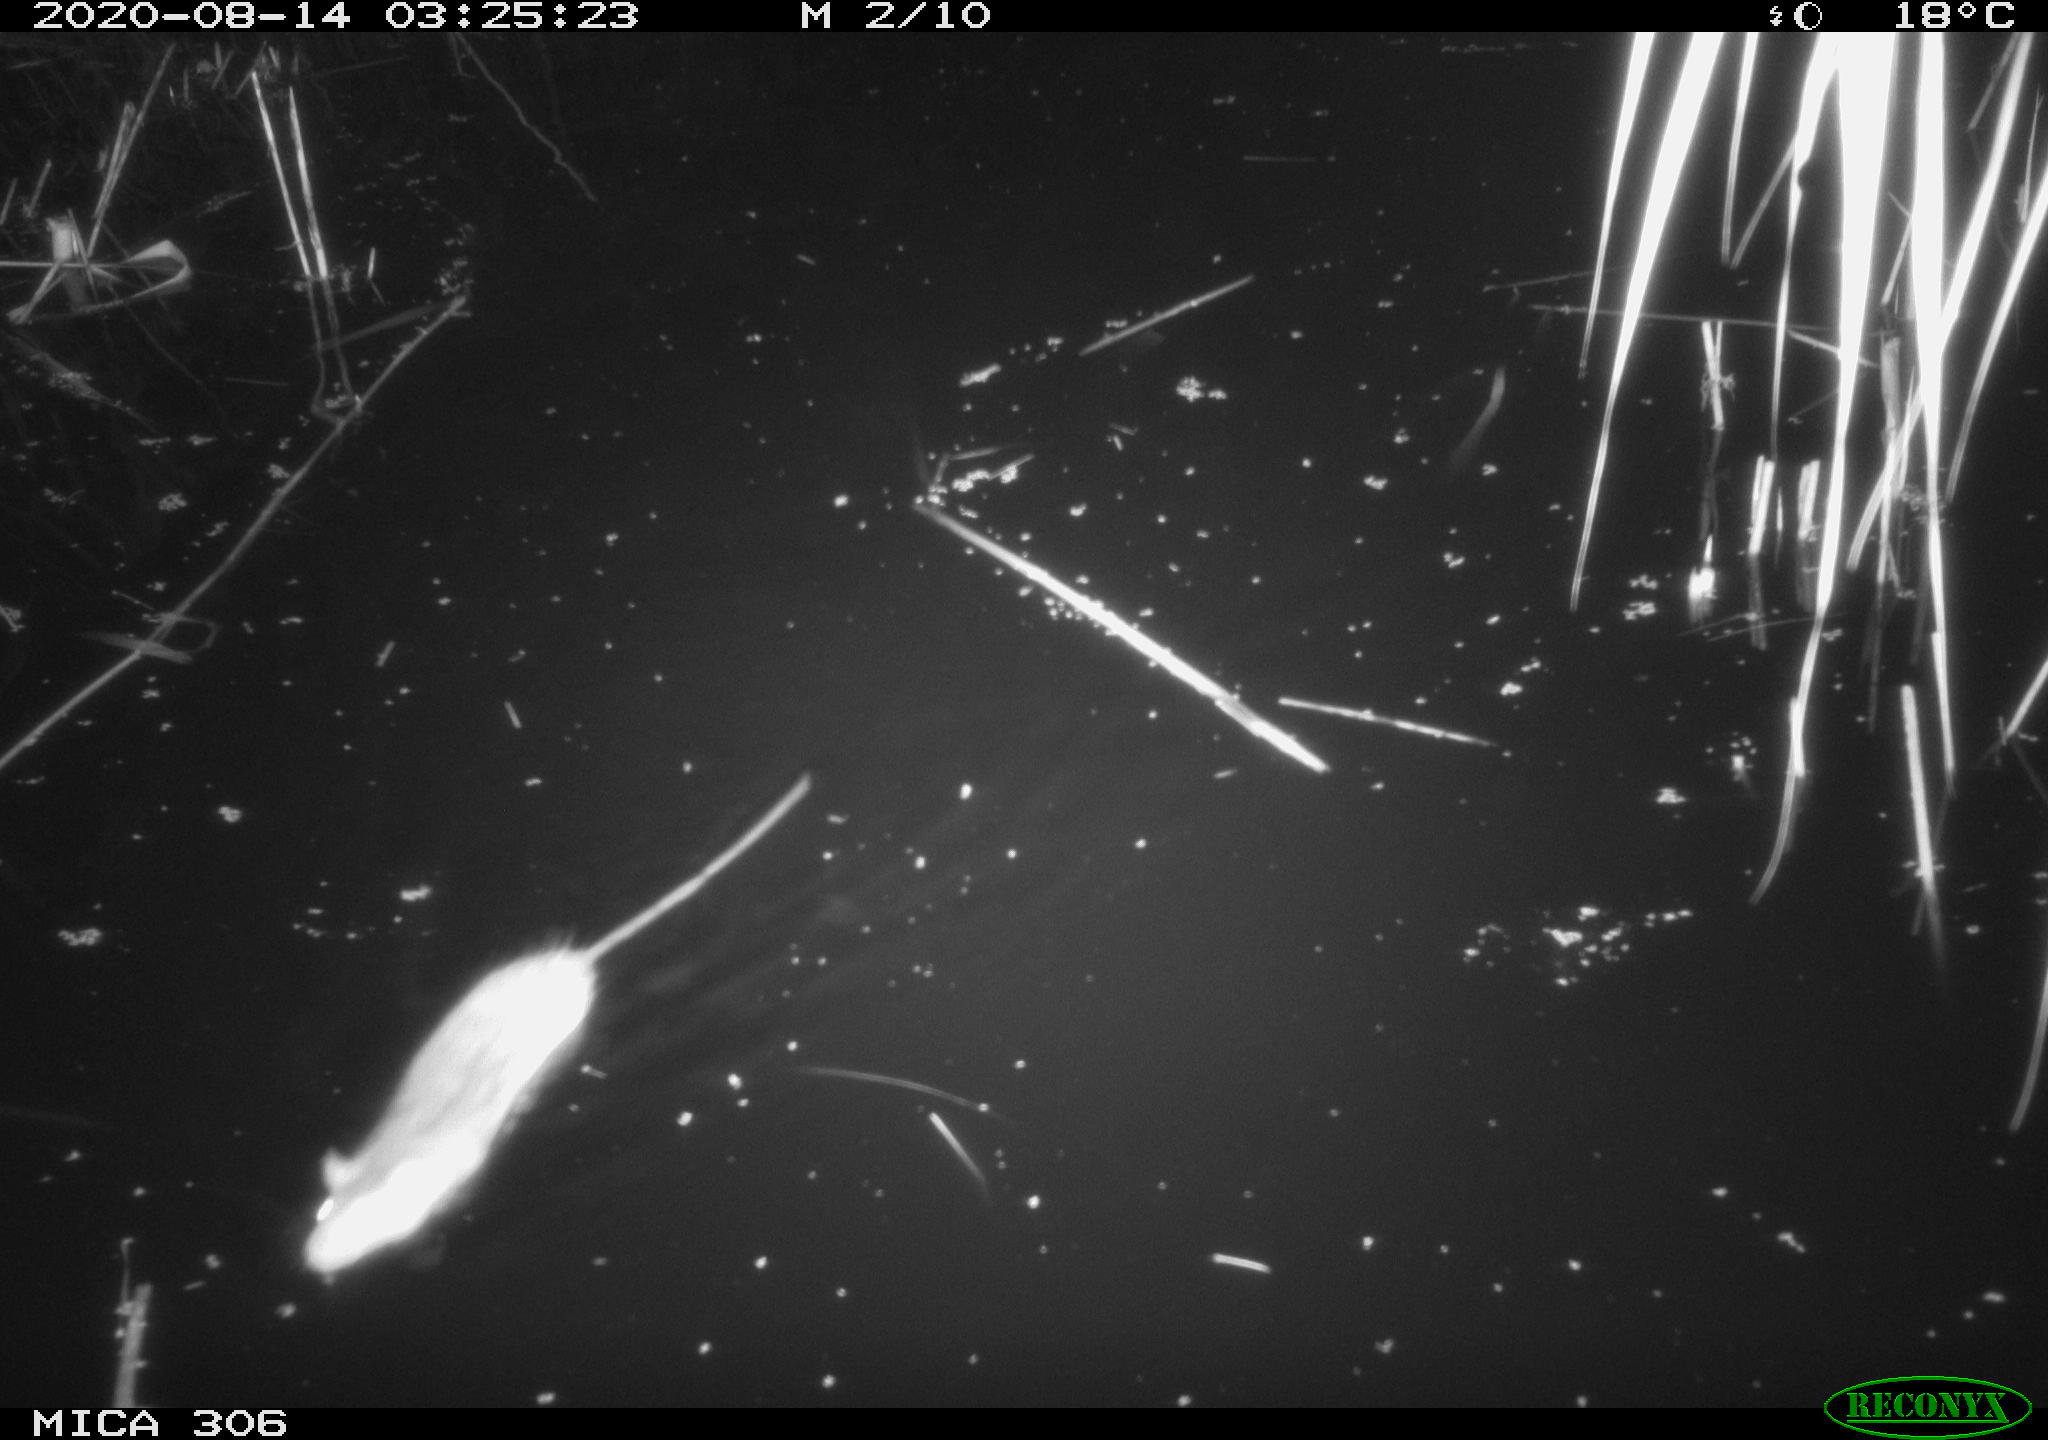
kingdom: Animalia
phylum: Chordata
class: Mammalia
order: Rodentia
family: Muridae
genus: Rattus
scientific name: Rattus norvegicus
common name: Brown rat
